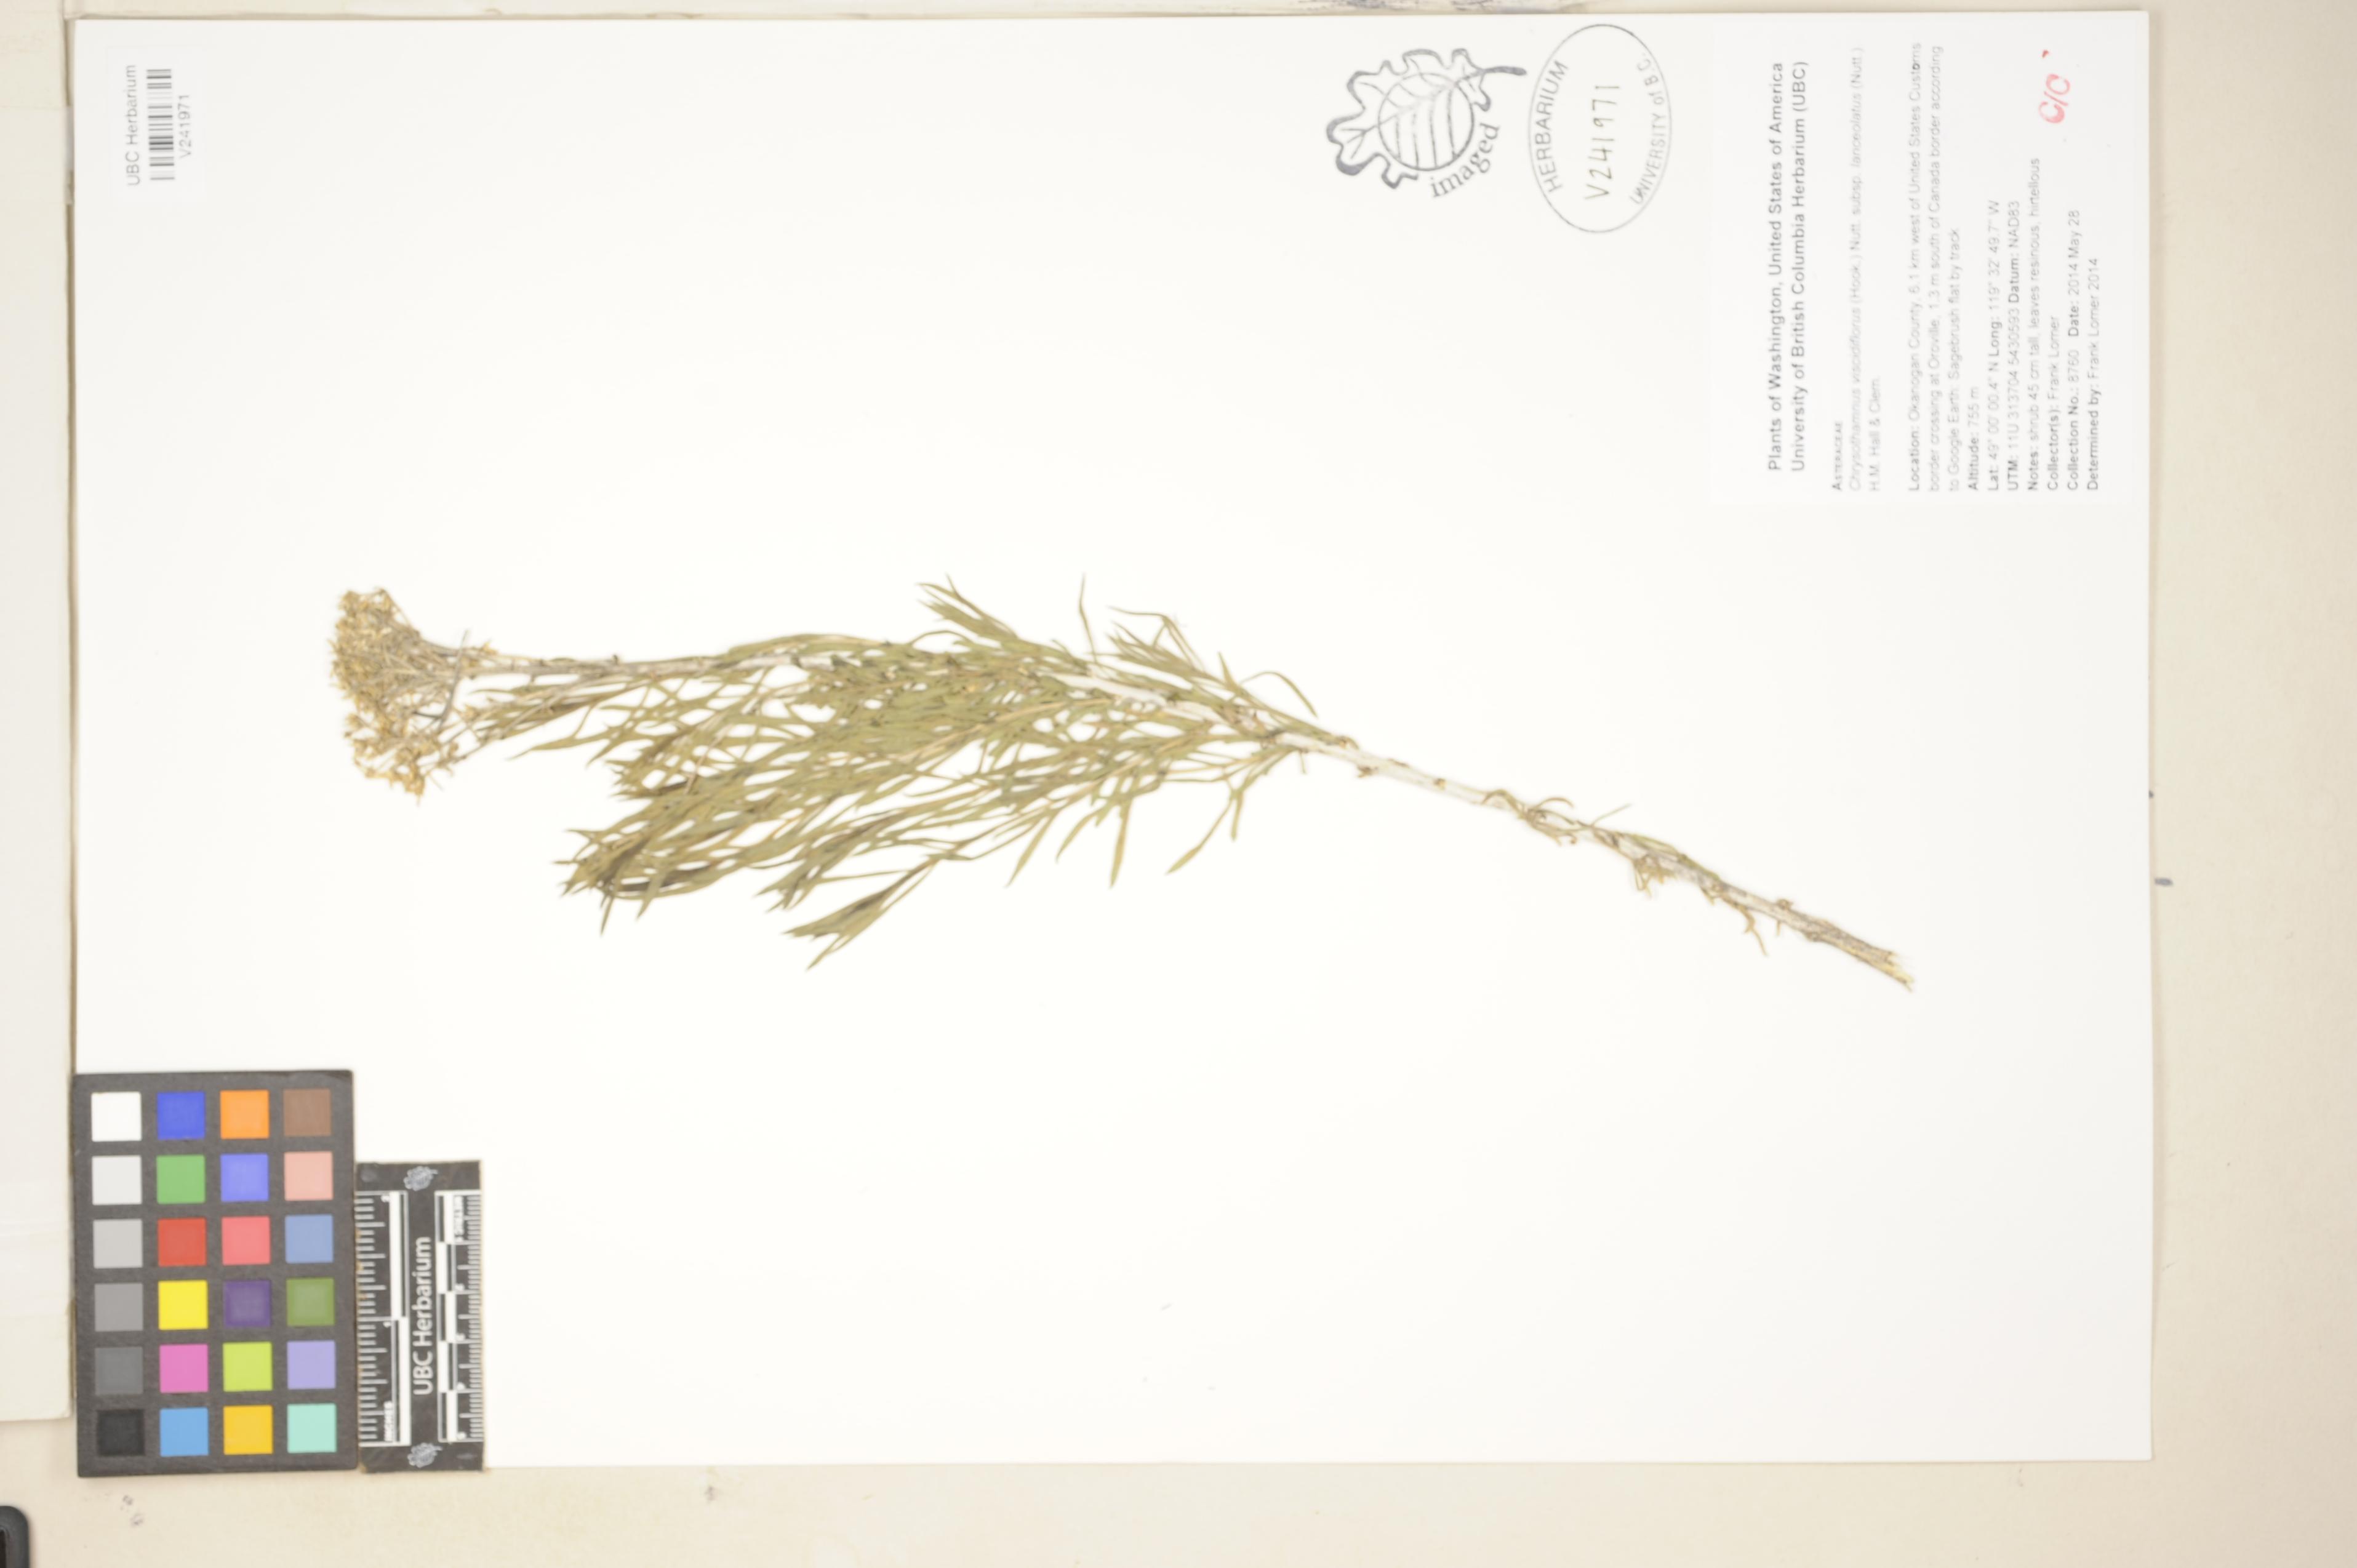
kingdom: Plantae
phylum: Tracheophyta
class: Magnoliopsida
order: Asterales
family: Asteraceae
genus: Chrysothamnus
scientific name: Chrysothamnus viscidiflorus
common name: Yellow rabbitbrush
